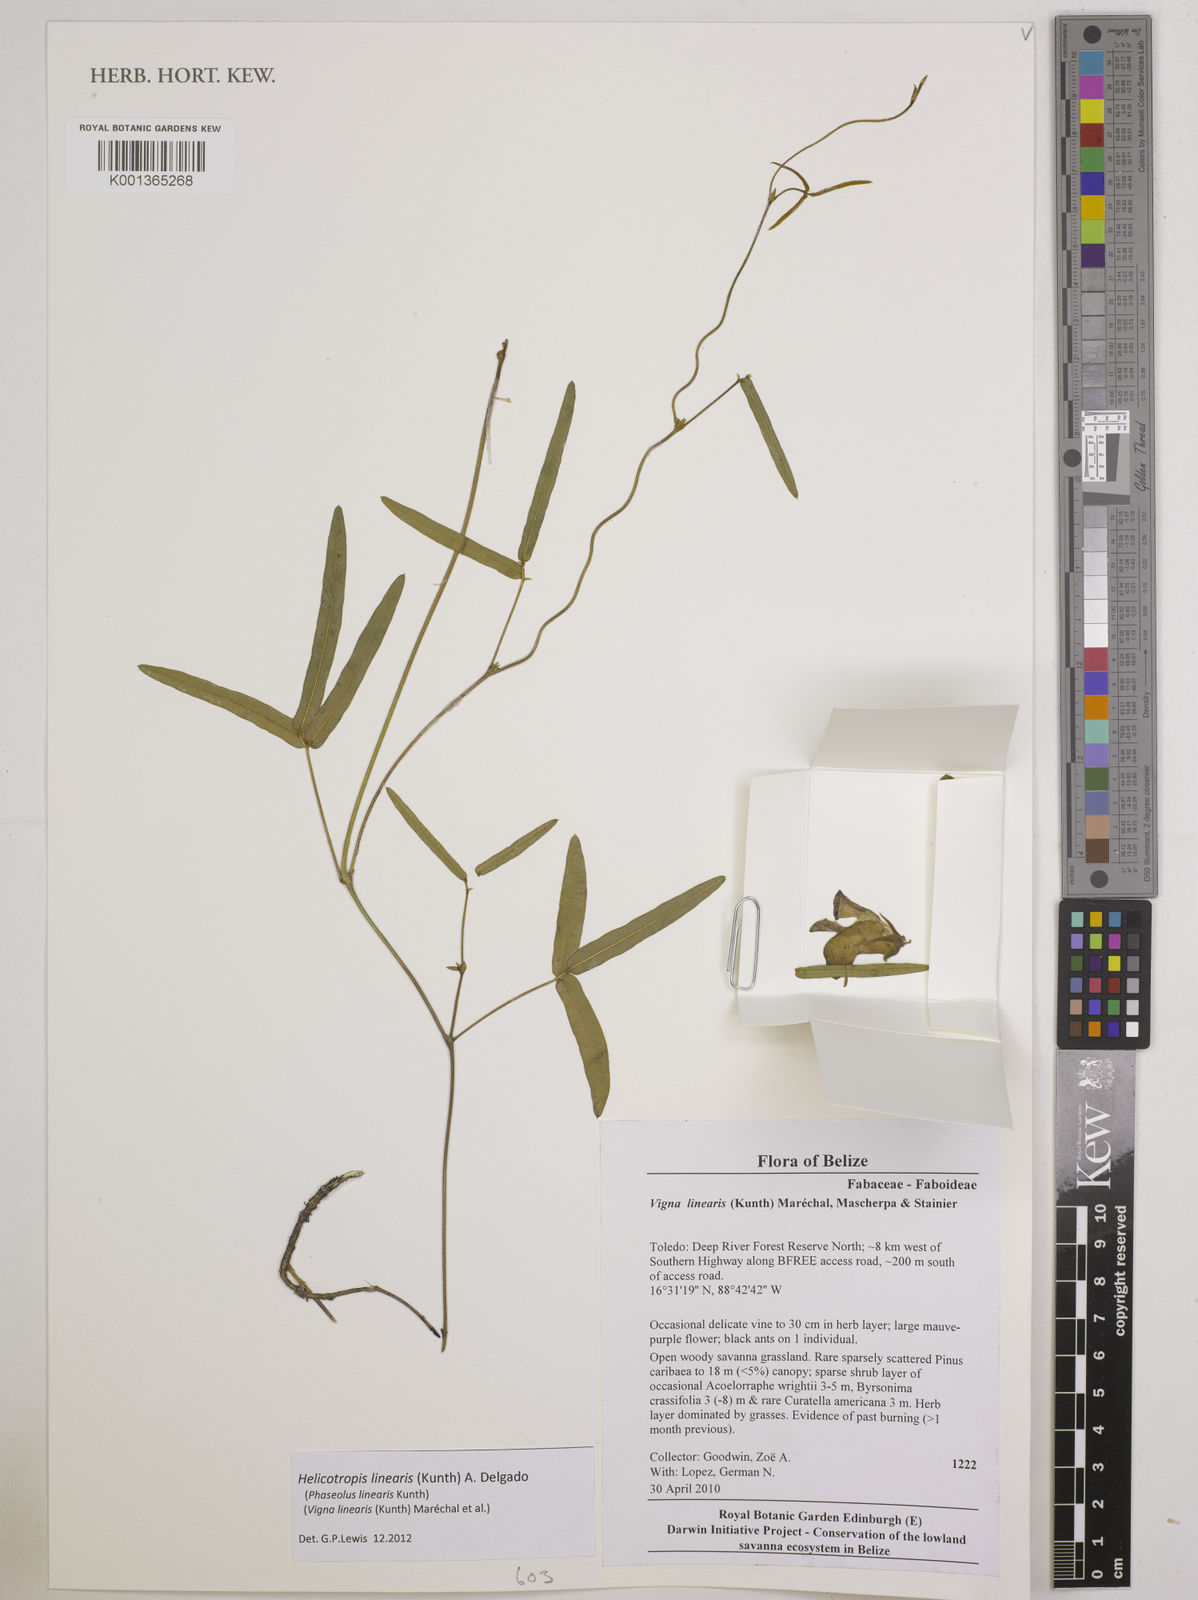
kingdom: Plantae
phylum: Tracheophyta
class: Magnoliopsida
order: Fabales
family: Fabaceae
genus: Helicotropis
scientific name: Helicotropis linearis
